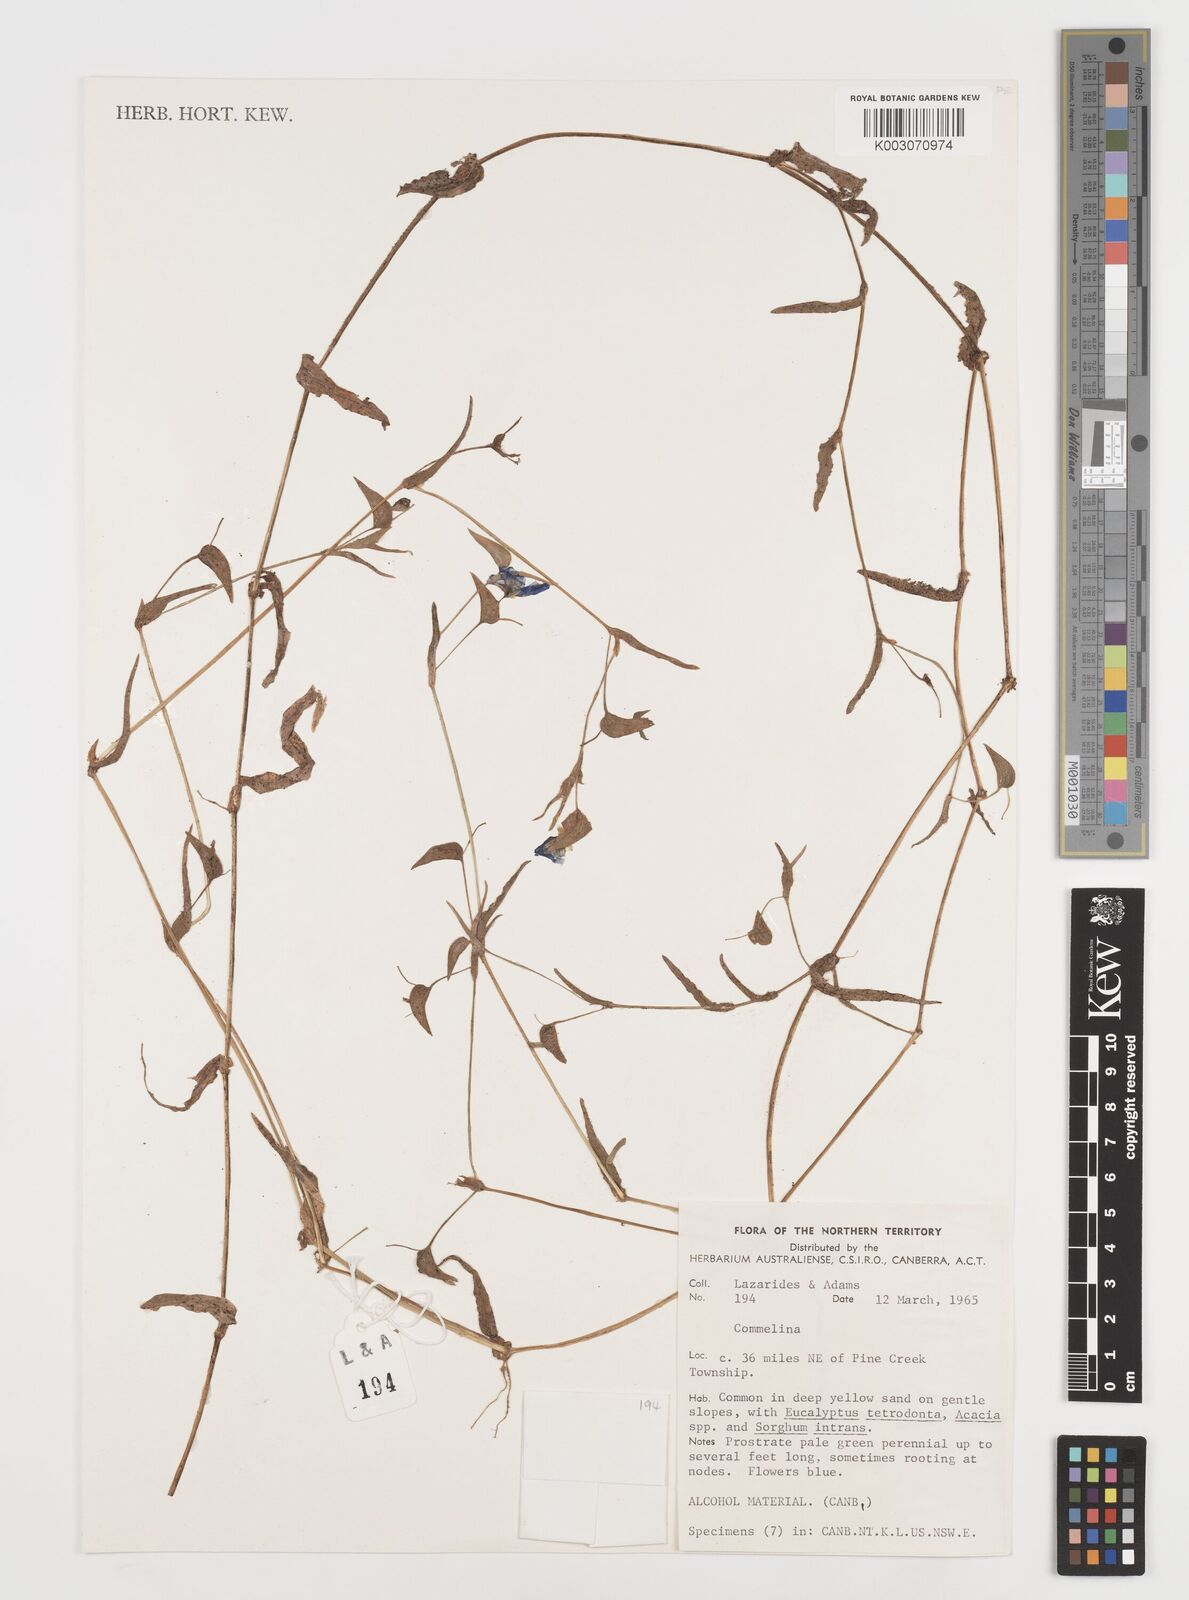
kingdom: Plantae
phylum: Tracheophyta
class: Liliopsida
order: Commelinales
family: Commelinaceae
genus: Commelina
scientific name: Commelina
